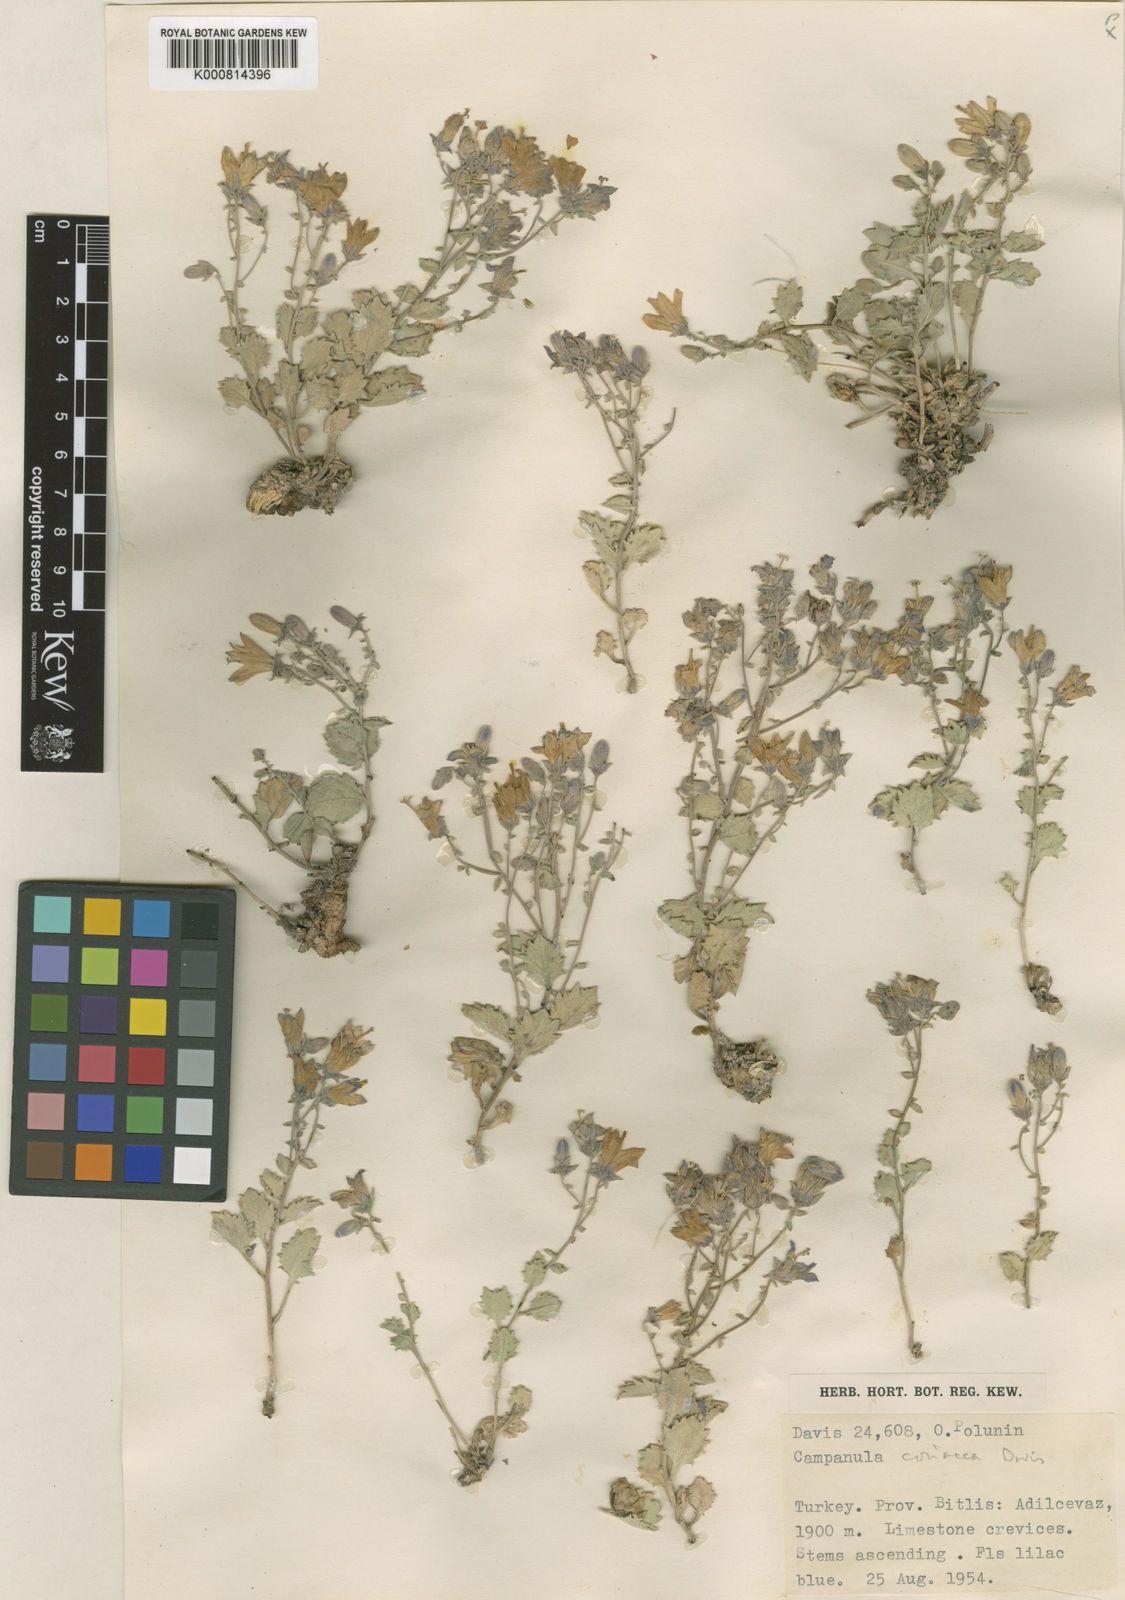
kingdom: Plantae
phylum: Tracheophyta
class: Magnoliopsida
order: Asterales
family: Campanulaceae
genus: Campanula
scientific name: Campanula coriacea
